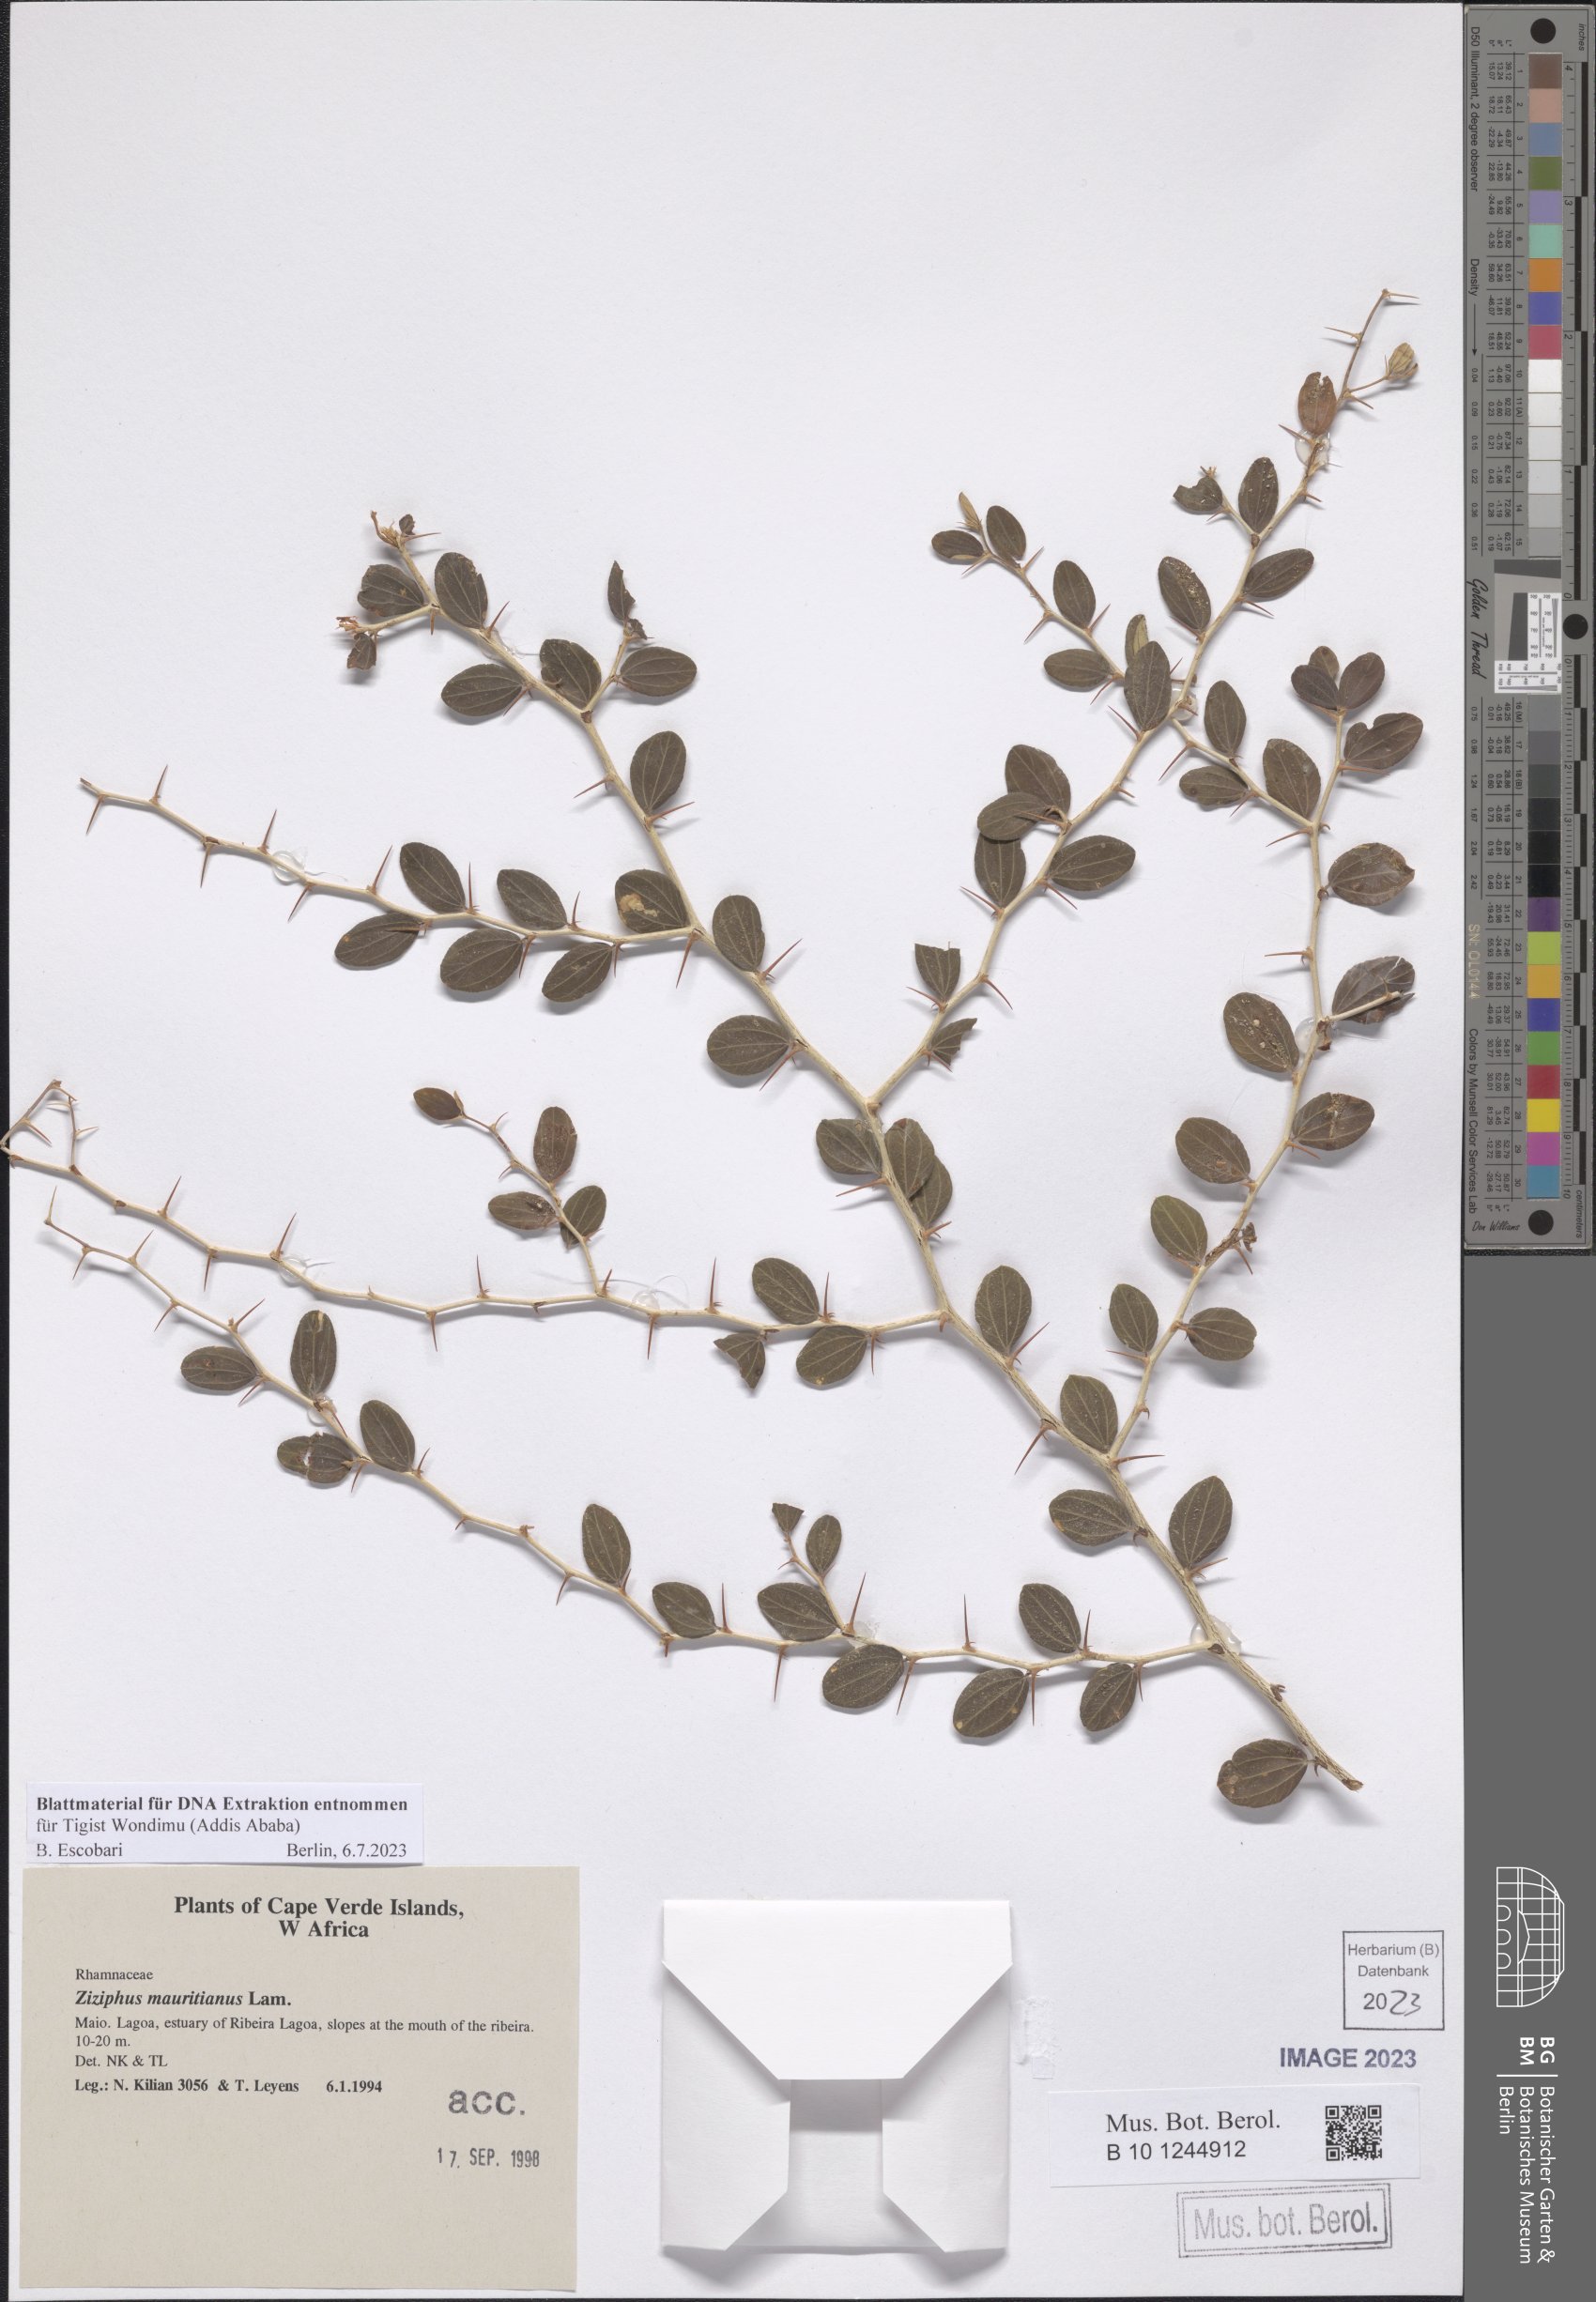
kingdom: Plantae
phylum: Tracheophyta
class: Magnoliopsida
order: Rosales
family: Rhamnaceae
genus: Ziziphus
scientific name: Ziziphus mauritiana
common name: Indian jujube
